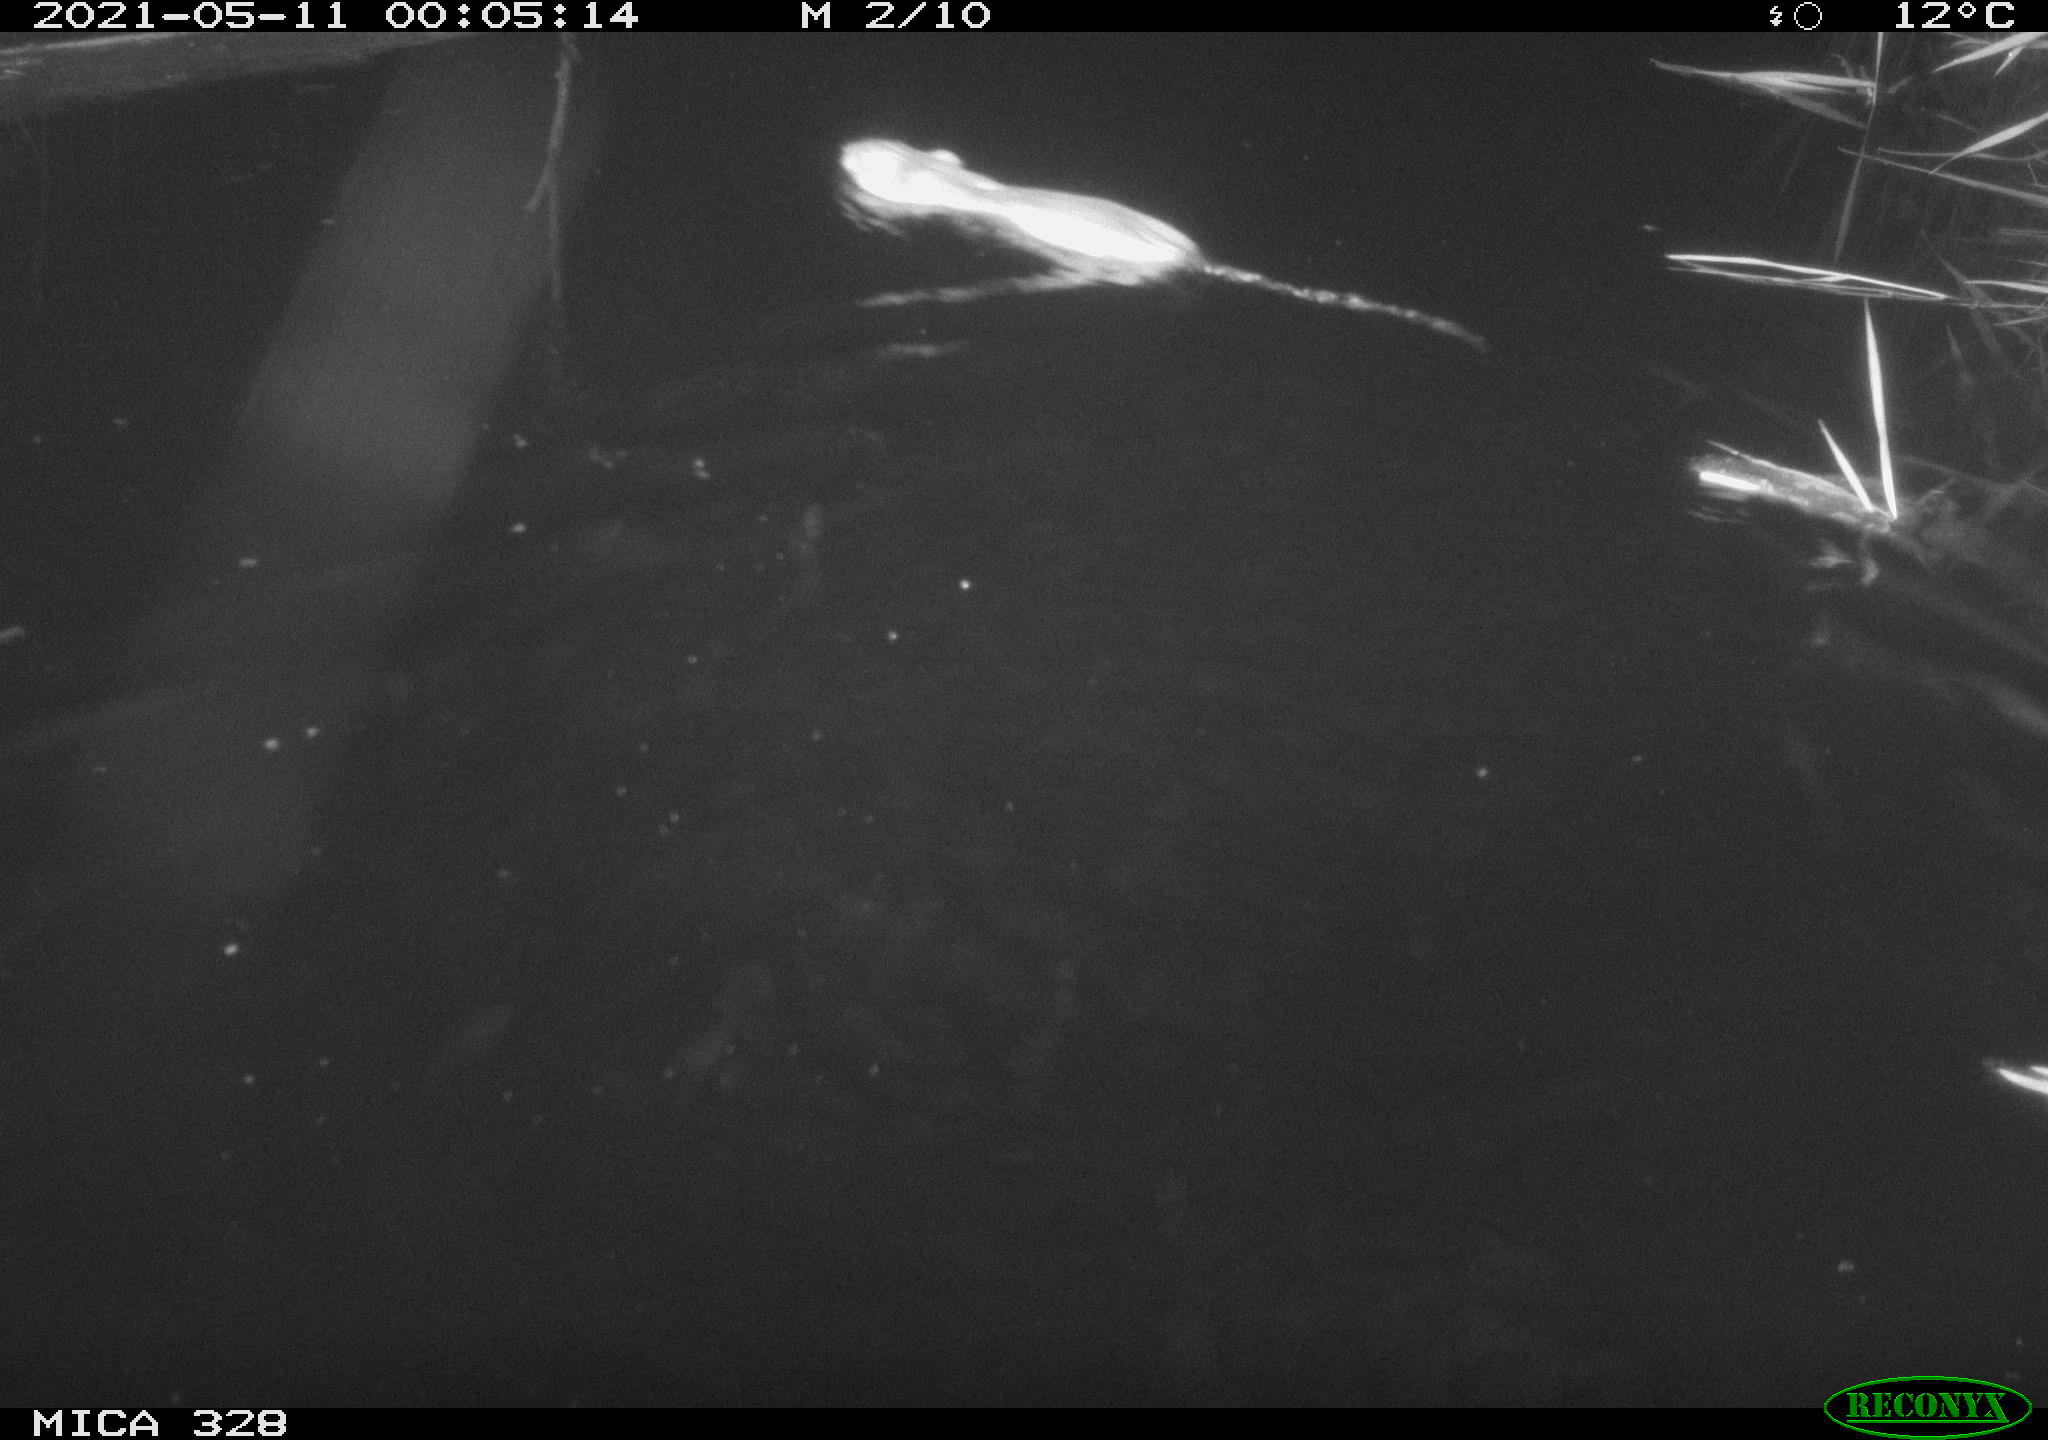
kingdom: Animalia
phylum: Chordata
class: Mammalia
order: Rodentia
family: Cricetidae
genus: Ondatra
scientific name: Ondatra zibethicus
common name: Muskrat
